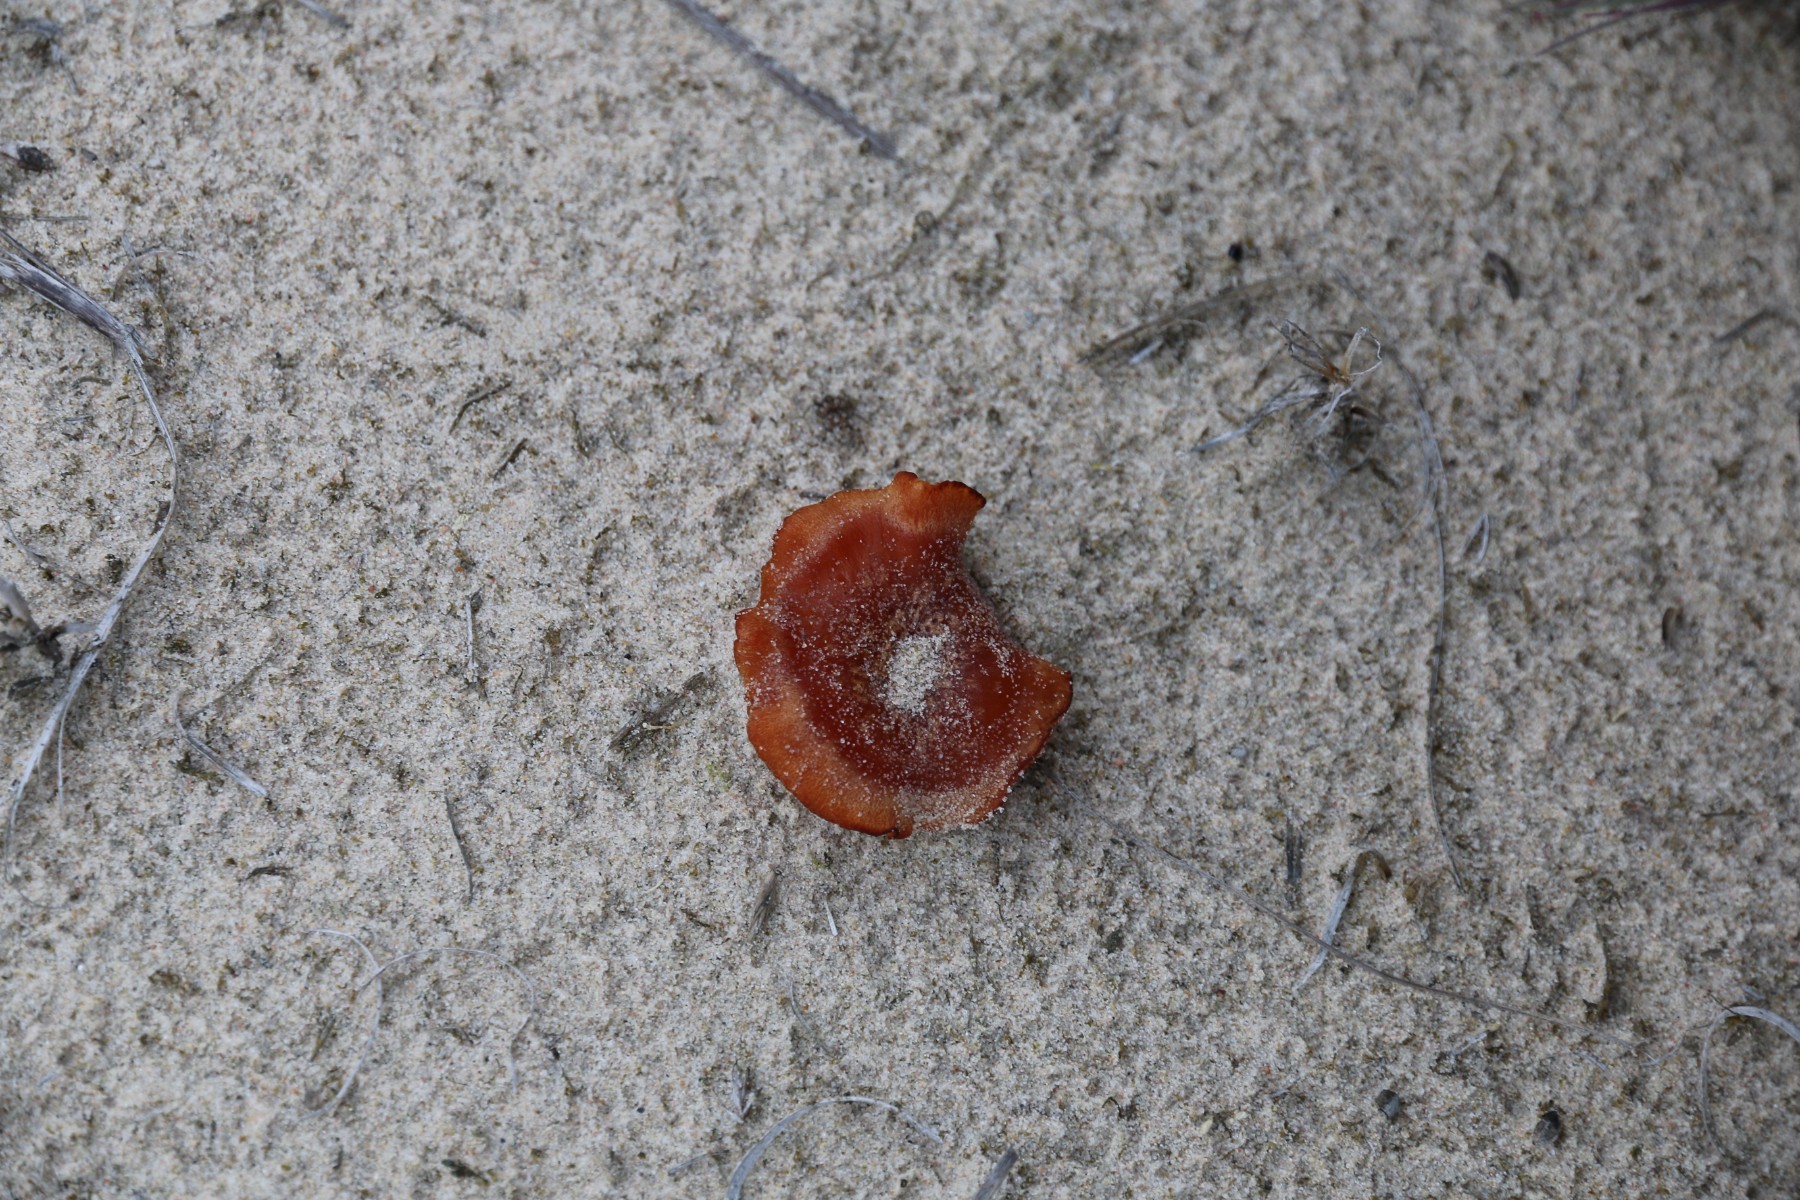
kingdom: Fungi
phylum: Basidiomycota
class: Agaricomycetes
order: Agaricales
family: Hydnangiaceae
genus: Laccaria
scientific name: Laccaria maritima
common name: klit-ametysthat
